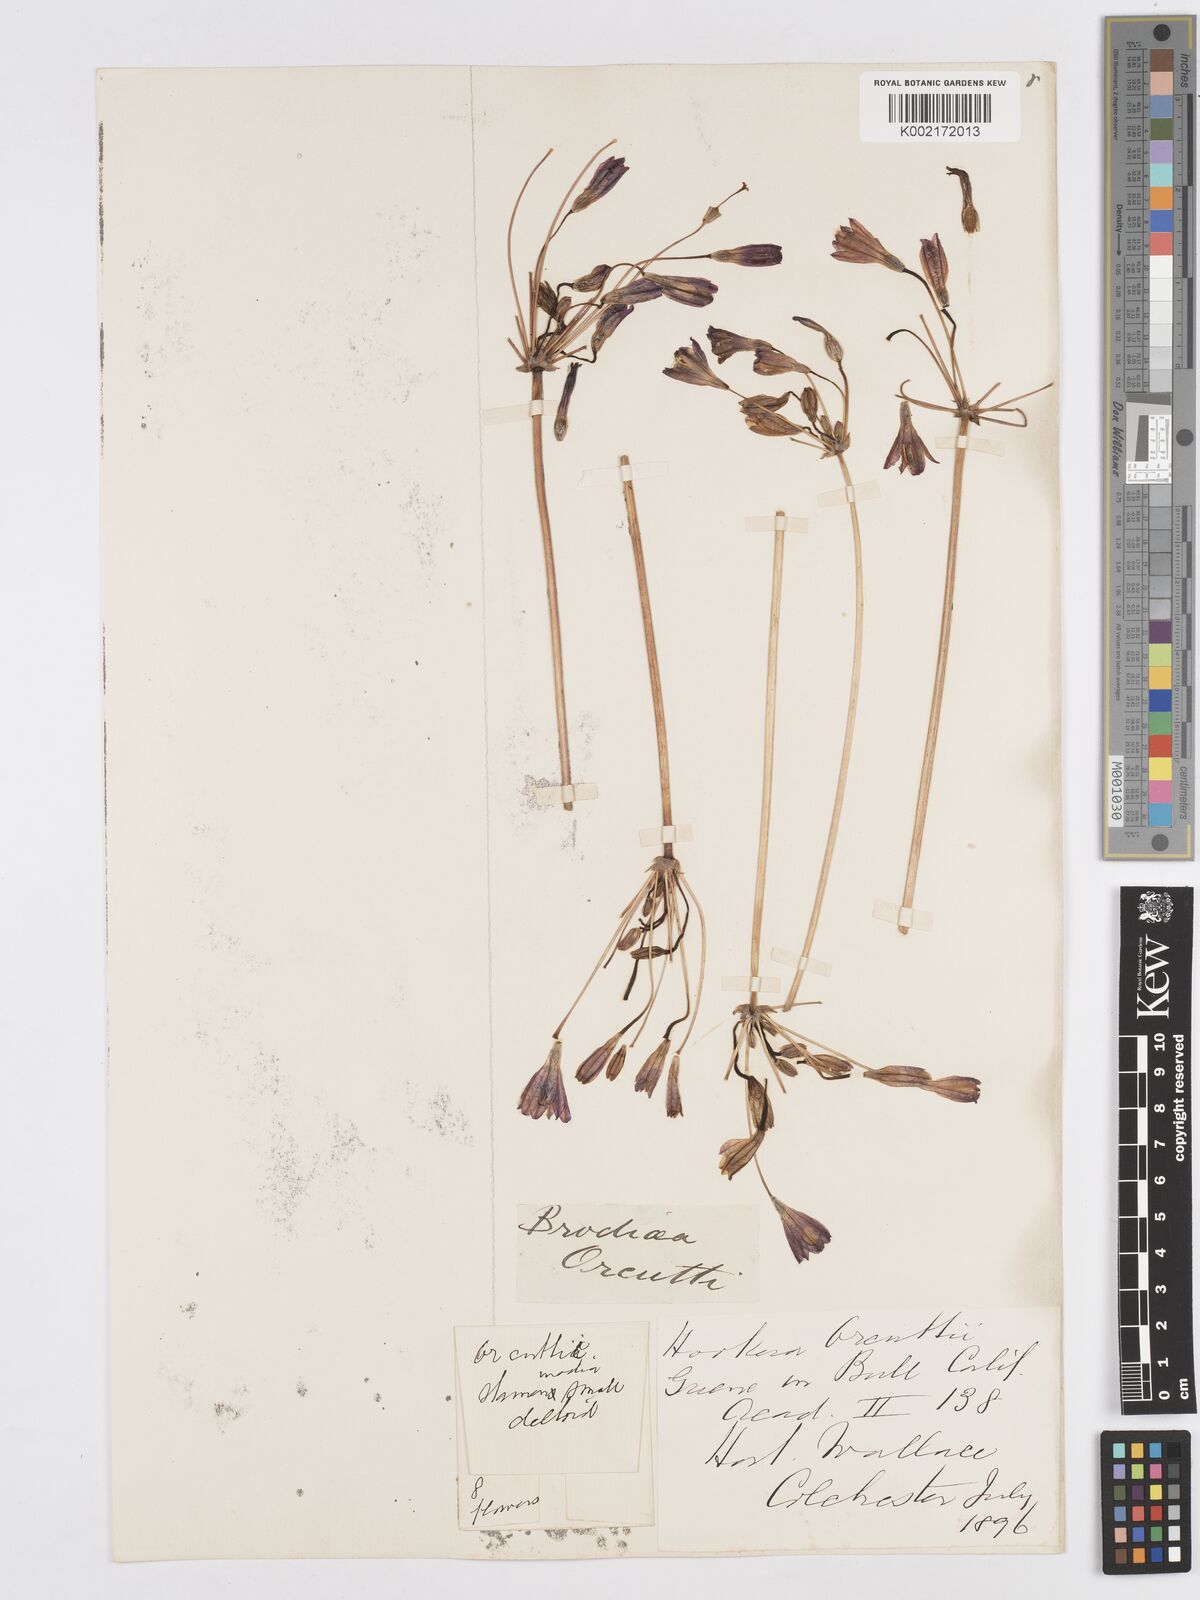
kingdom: Plantae
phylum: Tracheophyta
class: Liliopsida
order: Asparagales
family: Asparagaceae
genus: Brodiaea
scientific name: Brodiaea orcuttii
